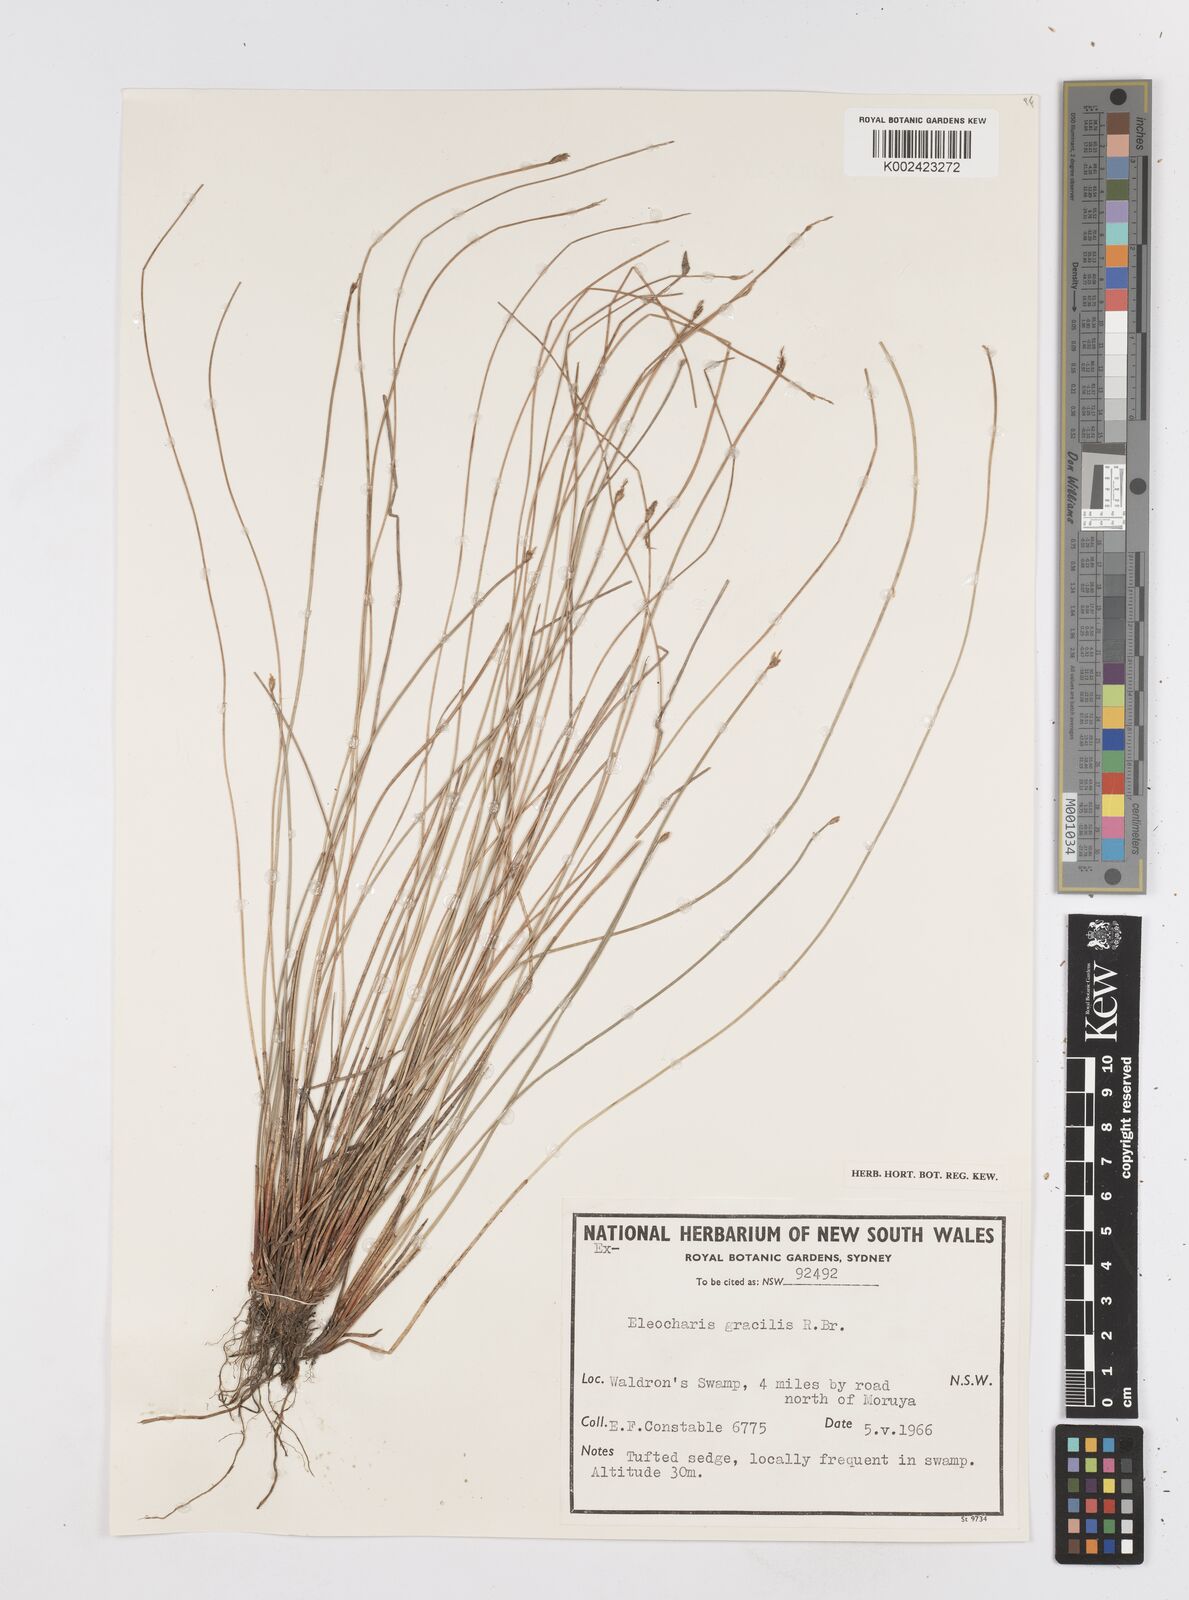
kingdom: Plantae
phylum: Tracheophyta
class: Liliopsida
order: Poales
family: Cyperaceae
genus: Eleocharis
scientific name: Eleocharis multicaulis
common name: Many-stalked spike-rush
